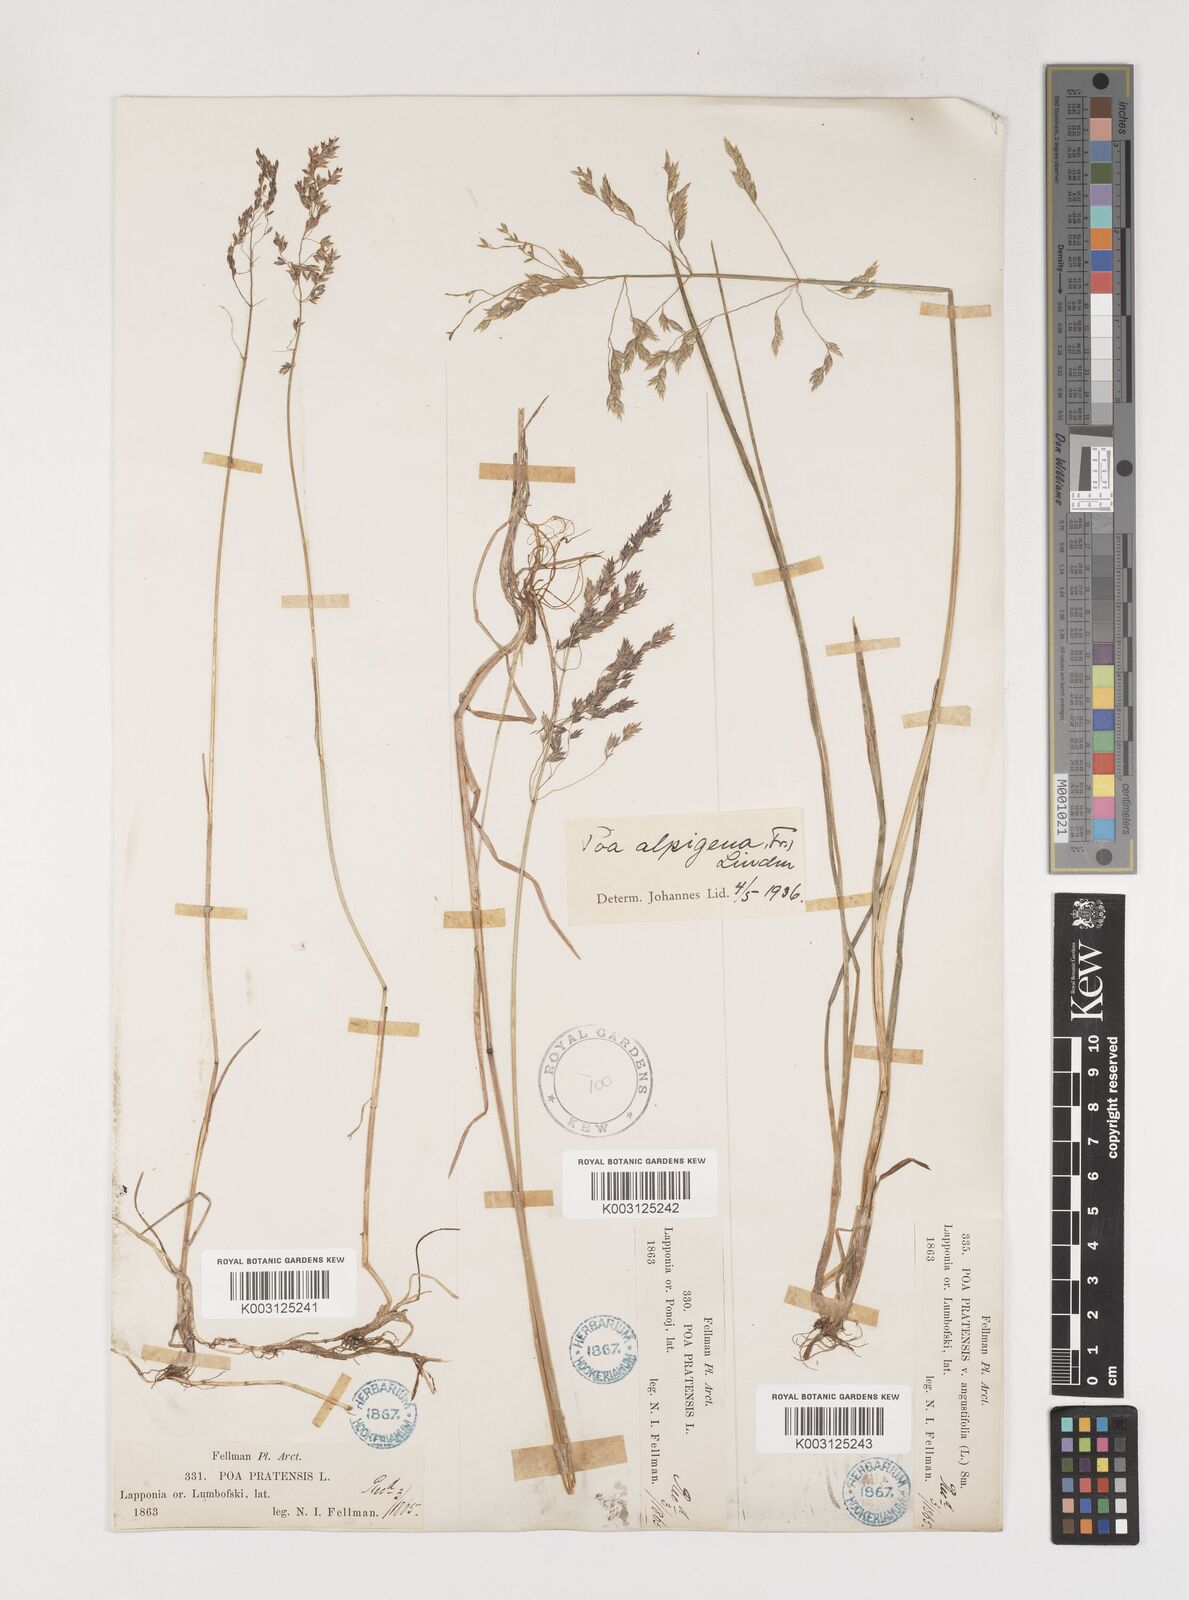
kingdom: Plantae
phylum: Tracheophyta
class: Liliopsida
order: Poales
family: Poaceae
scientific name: Poaceae
